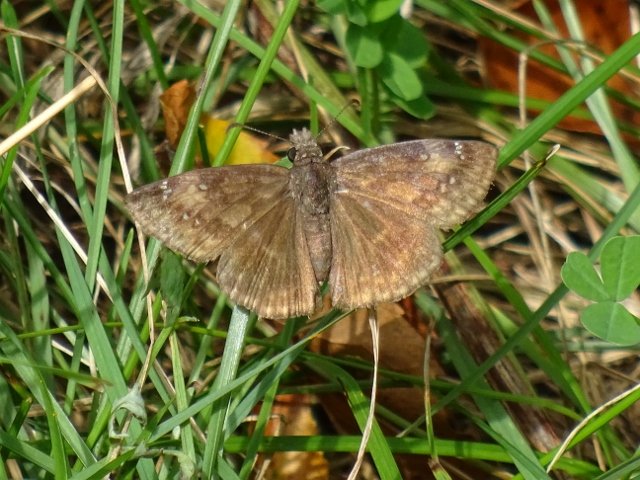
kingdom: Animalia
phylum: Arthropoda
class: Insecta
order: Lepidoptera
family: Hesperiidae
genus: Gesta
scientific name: Gesta
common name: Wild Indigo Duskywing
